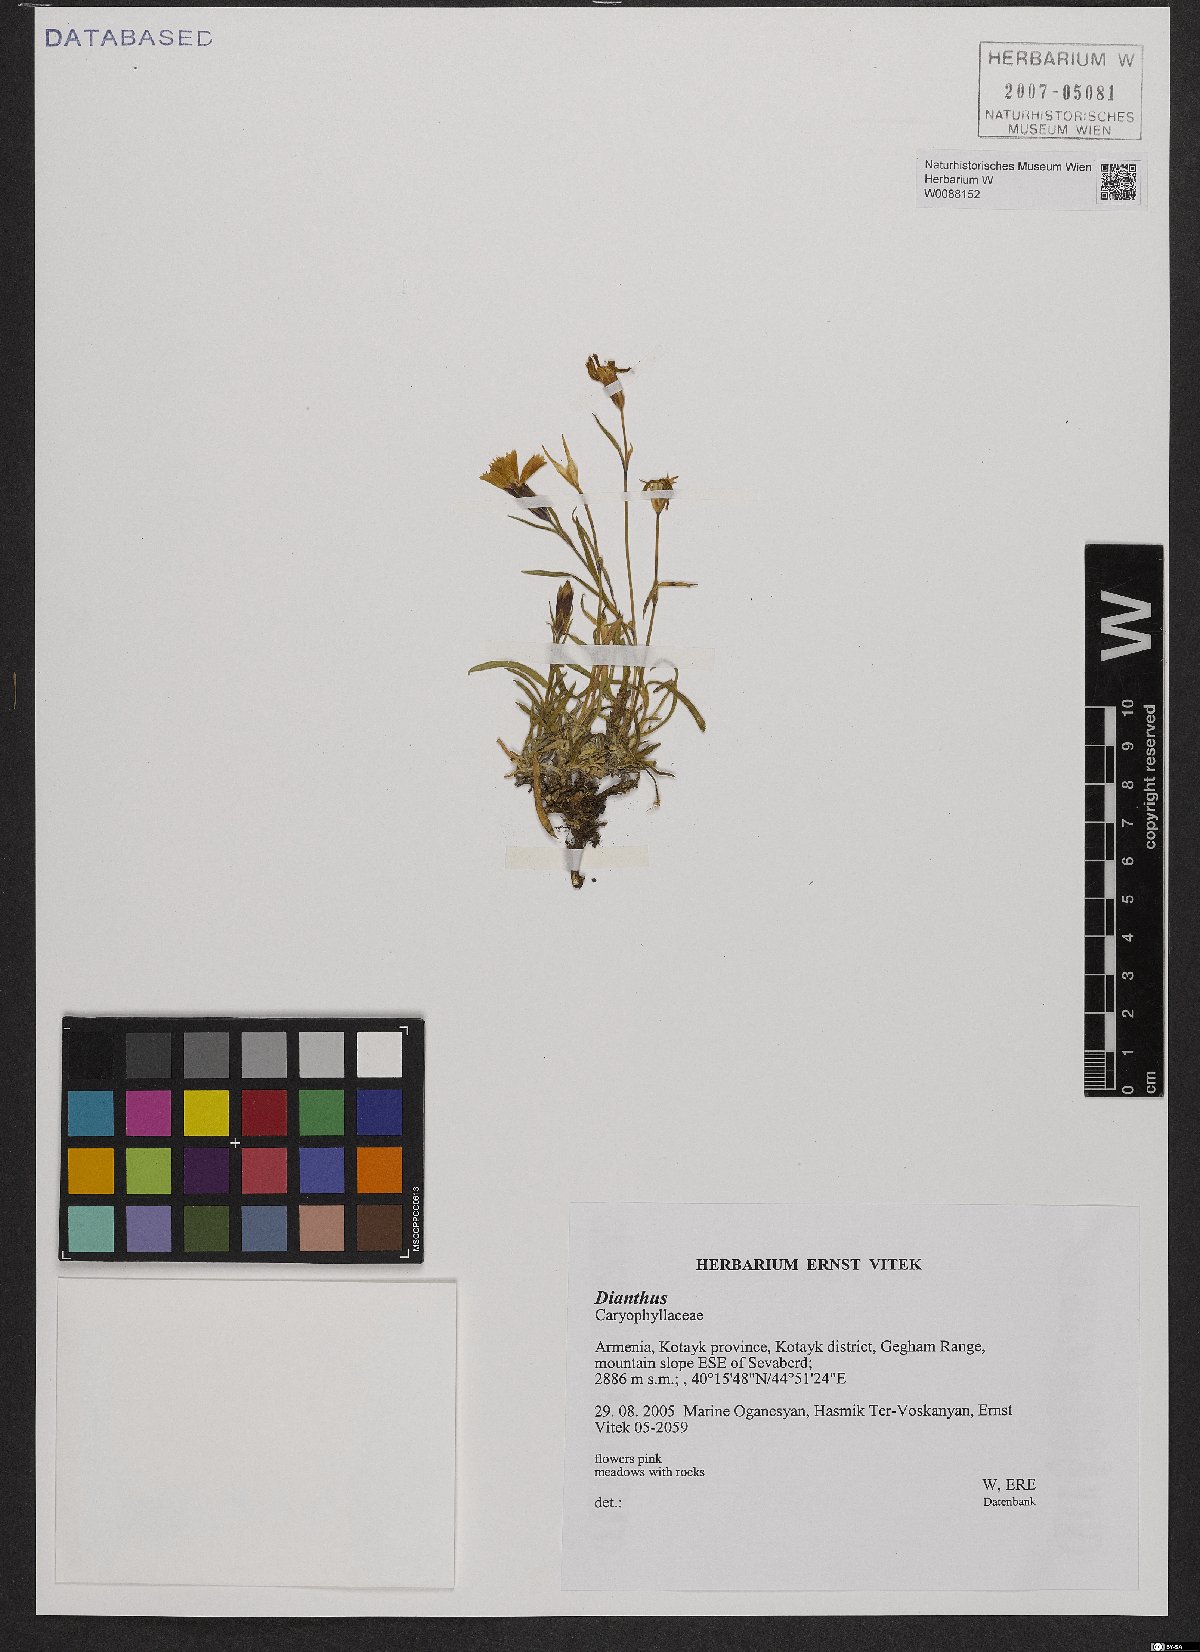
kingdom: Plantae
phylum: Tracheophyta
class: Magnoliopsida
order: Caryophyllales
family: Caryophyllaceae
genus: Dianthus
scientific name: Dianthus
